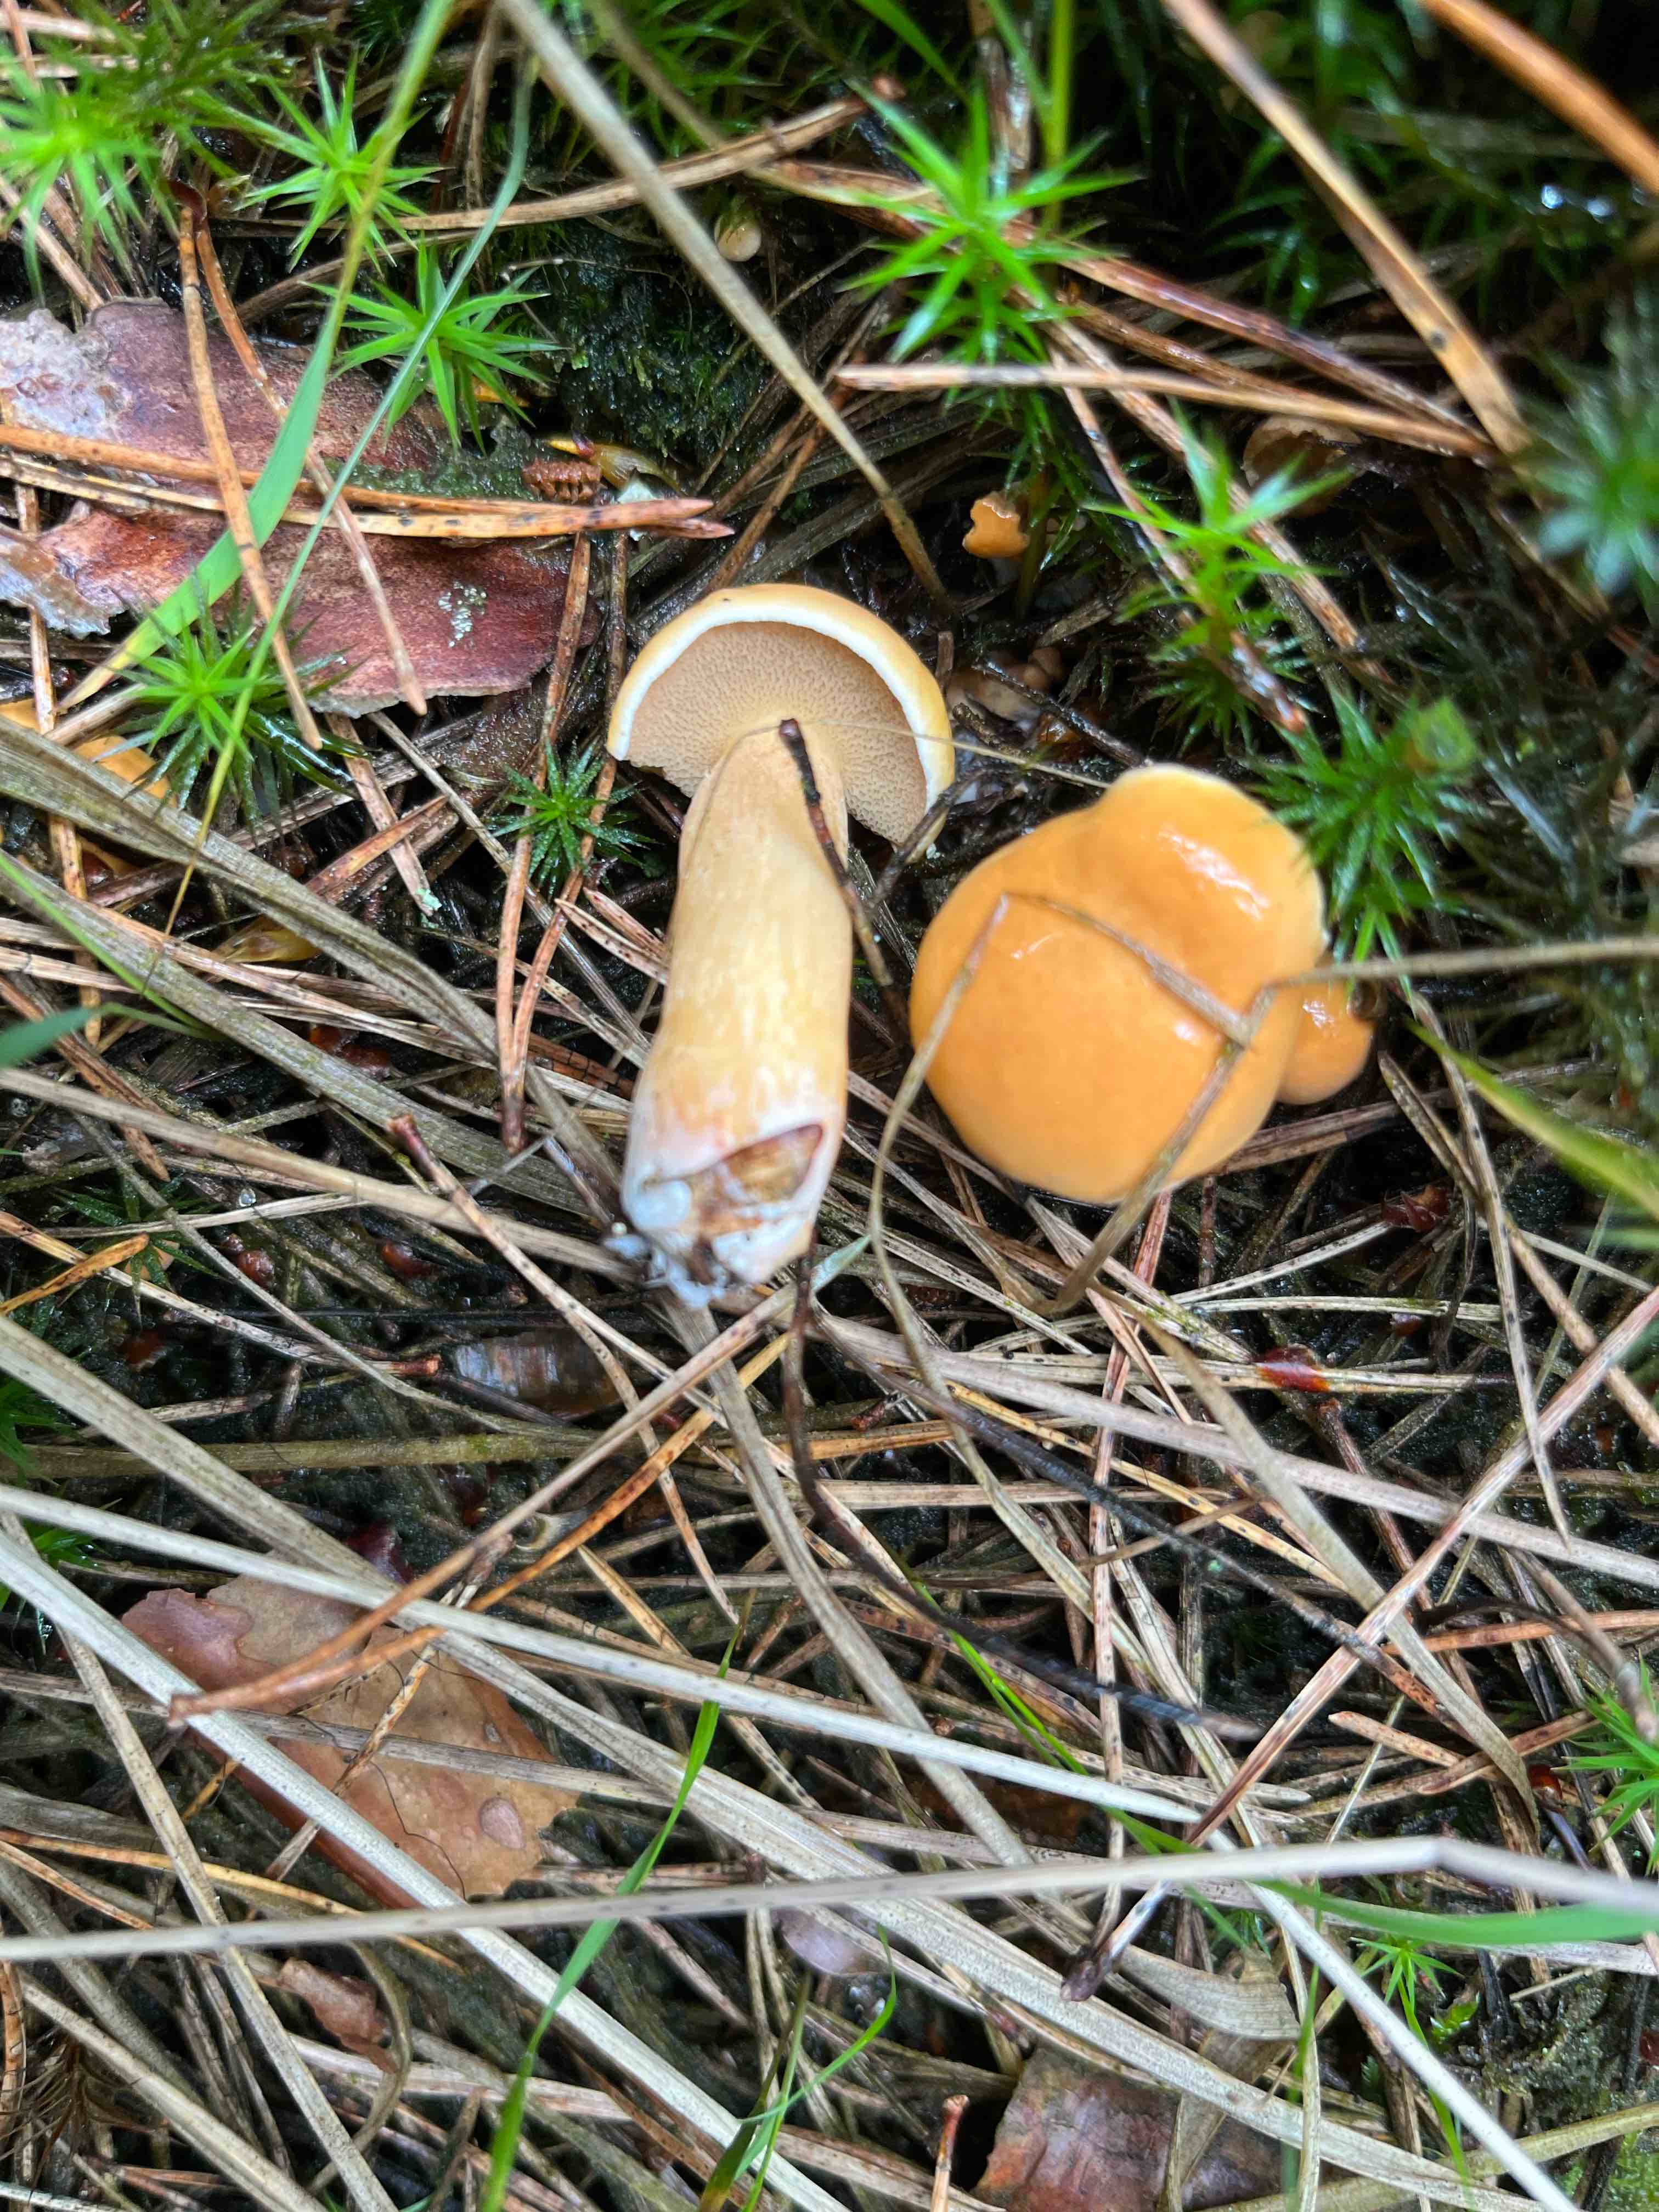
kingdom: Fungi
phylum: Basidiomycota
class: Agaricomycetes
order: Boletales
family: Suillaceae
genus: Suillus
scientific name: Suillus variegatus
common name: broget slimrørhat
